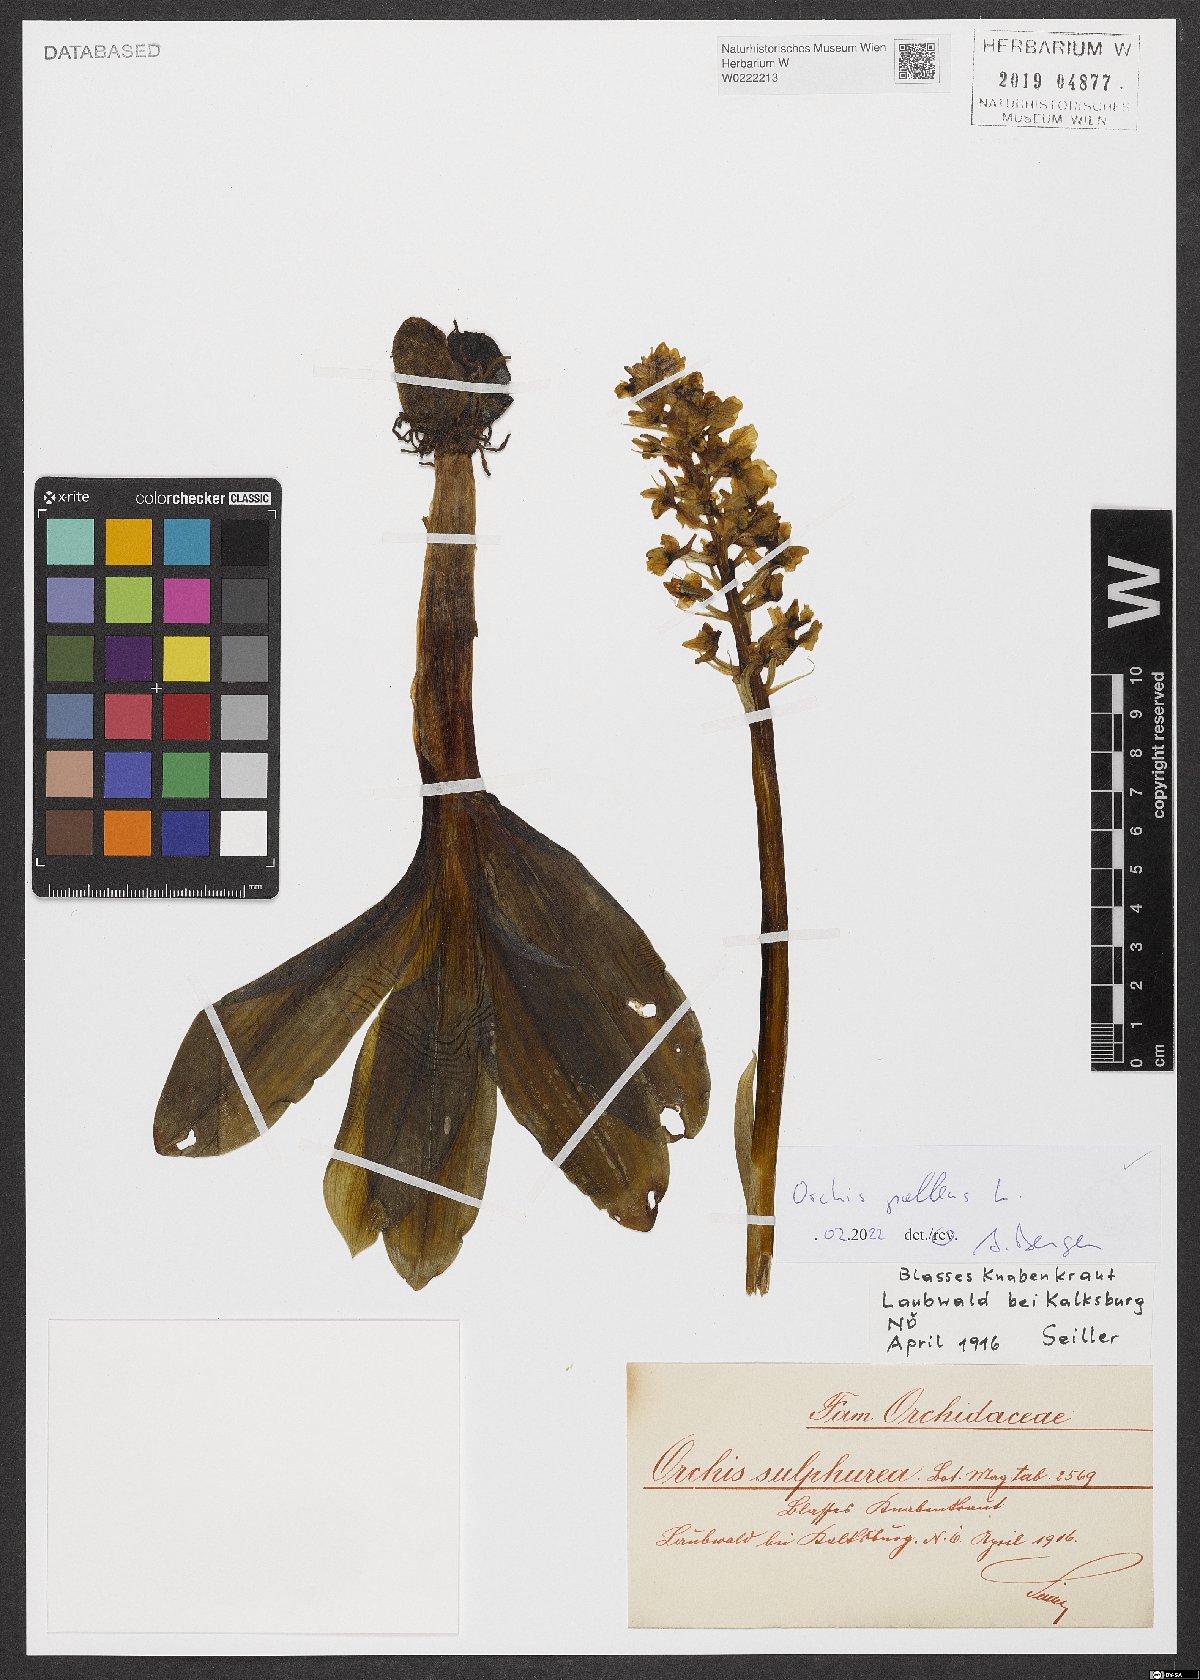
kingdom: Plantae
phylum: Tracheophyta
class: Liliopsida
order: Asparagales
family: Orchidaceae
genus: Orchis
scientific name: Orchis pallens
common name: Pale-flowered orchid
